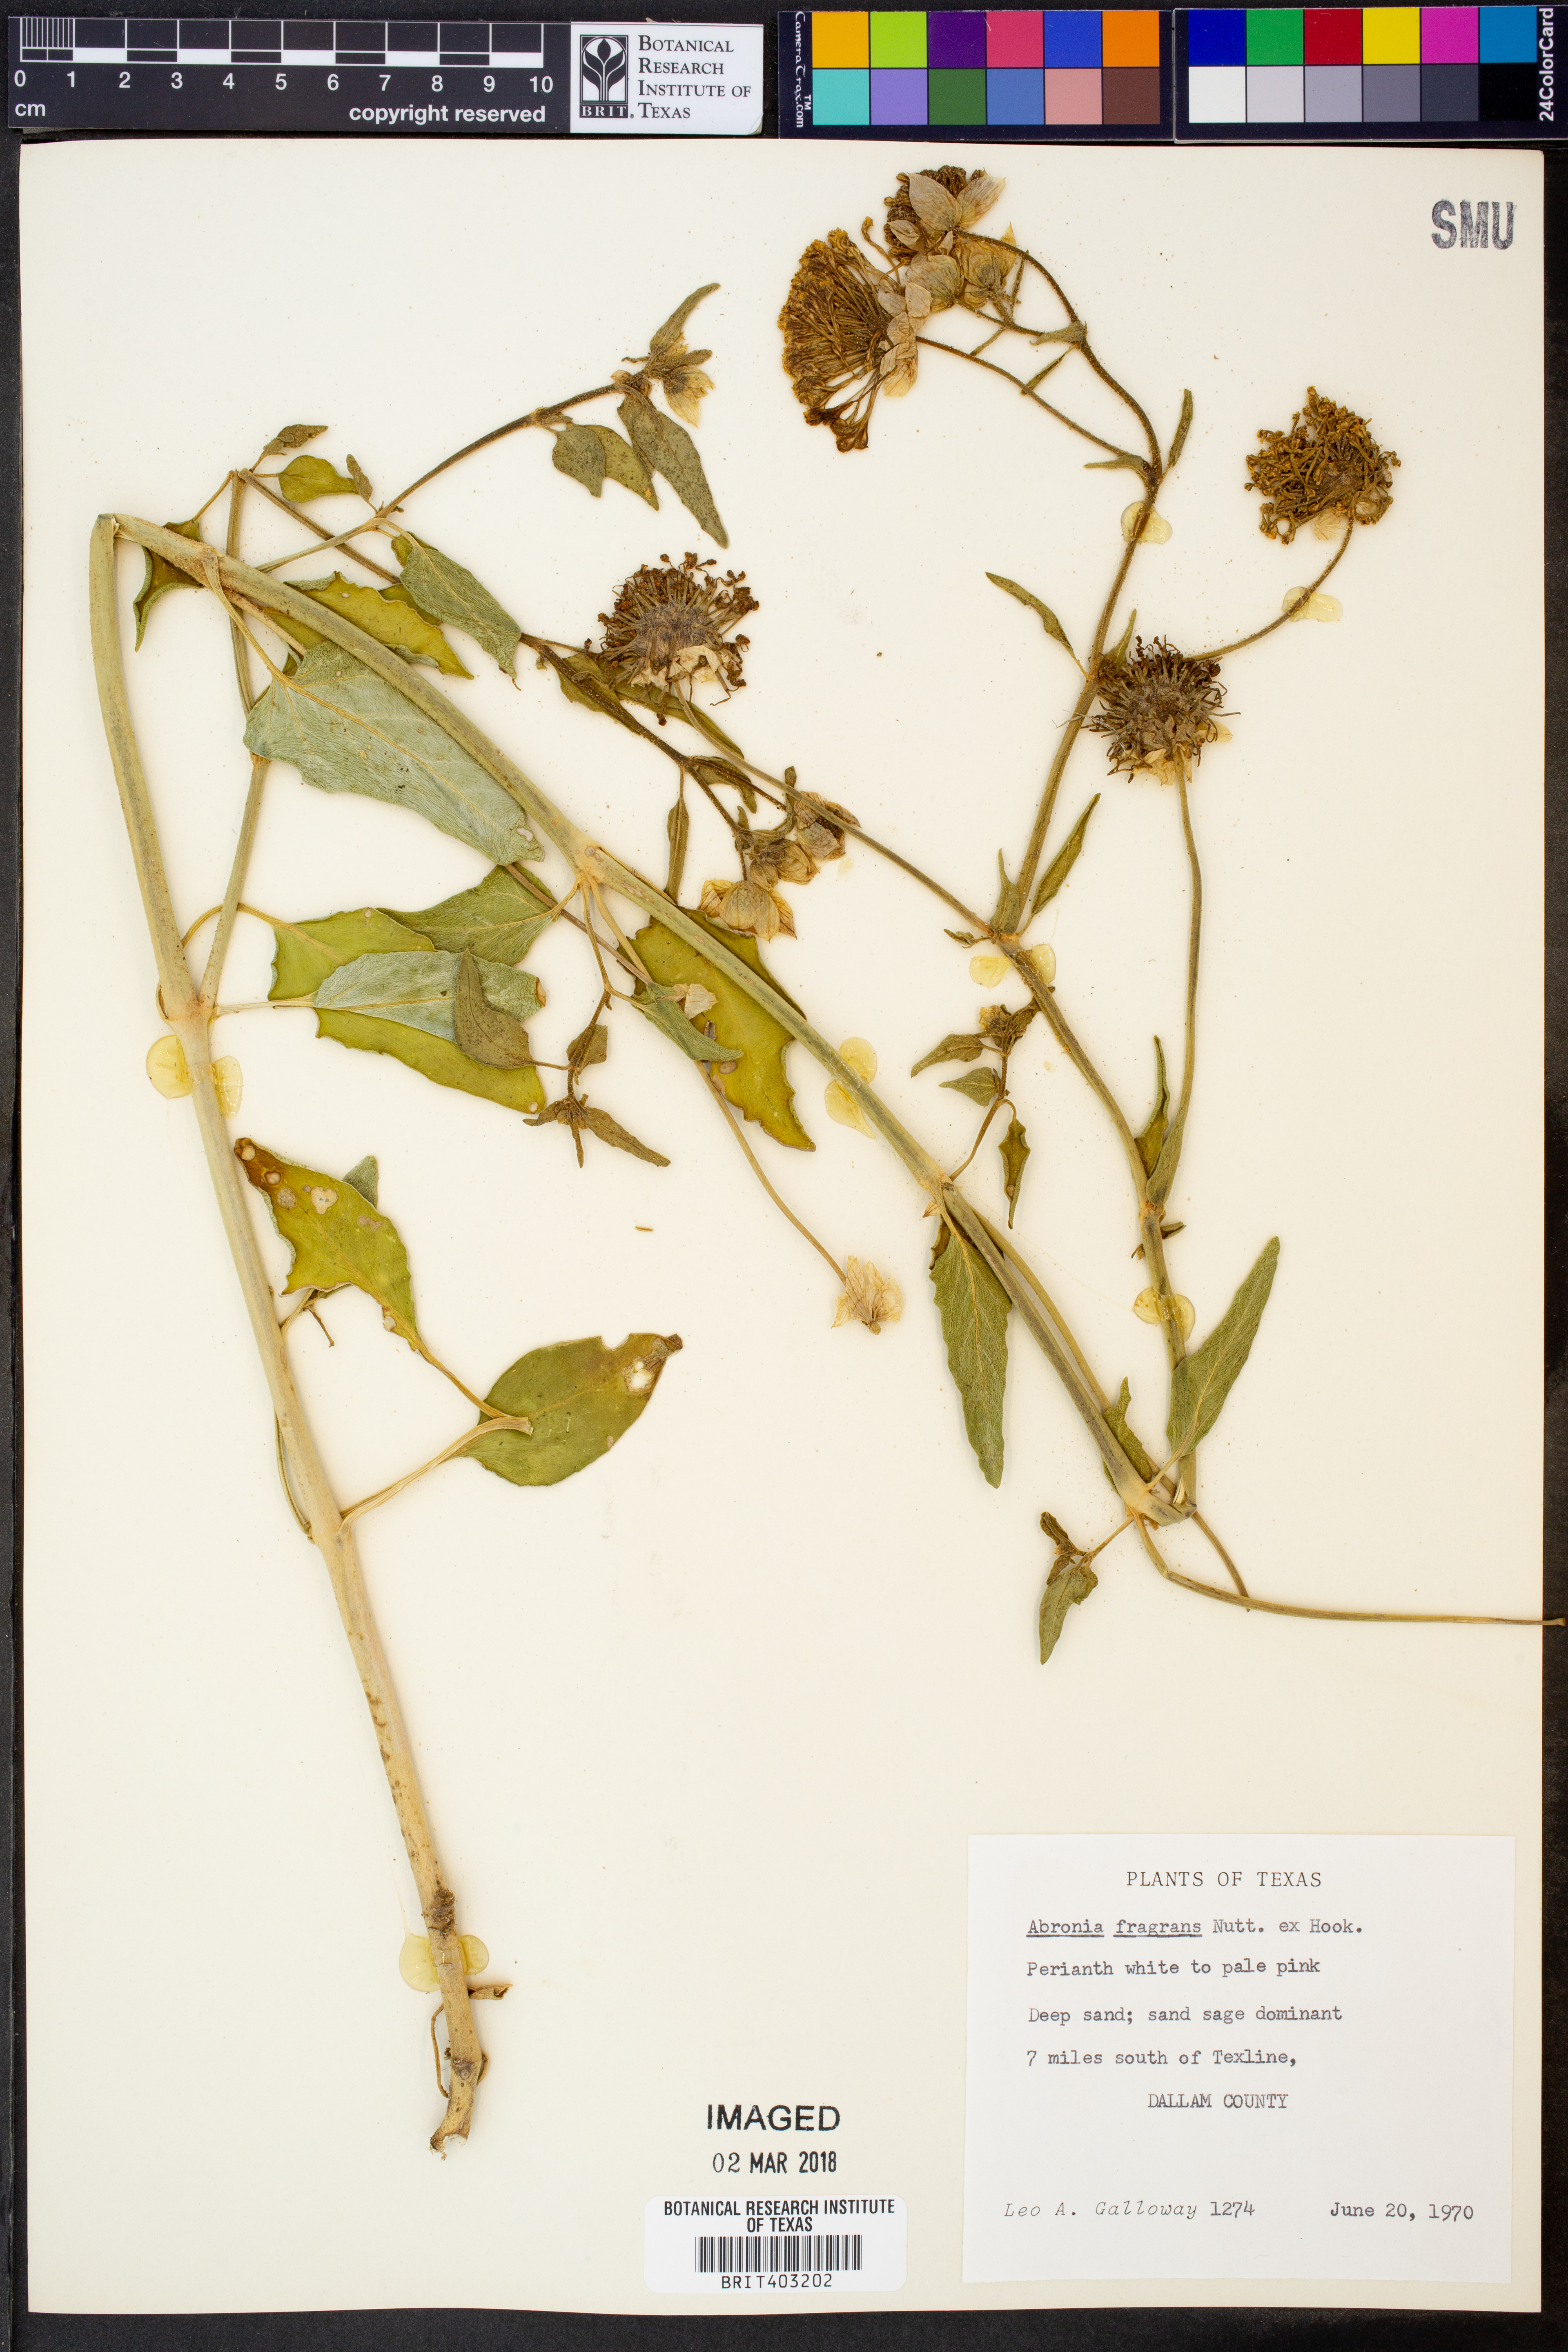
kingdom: Plantae
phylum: Tracheophyta
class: Magnoliopsida
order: Caryophyllales
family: Nyctaginaceae
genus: Abronia
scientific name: Abronia fragrans
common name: Fragrant sand-verbena
